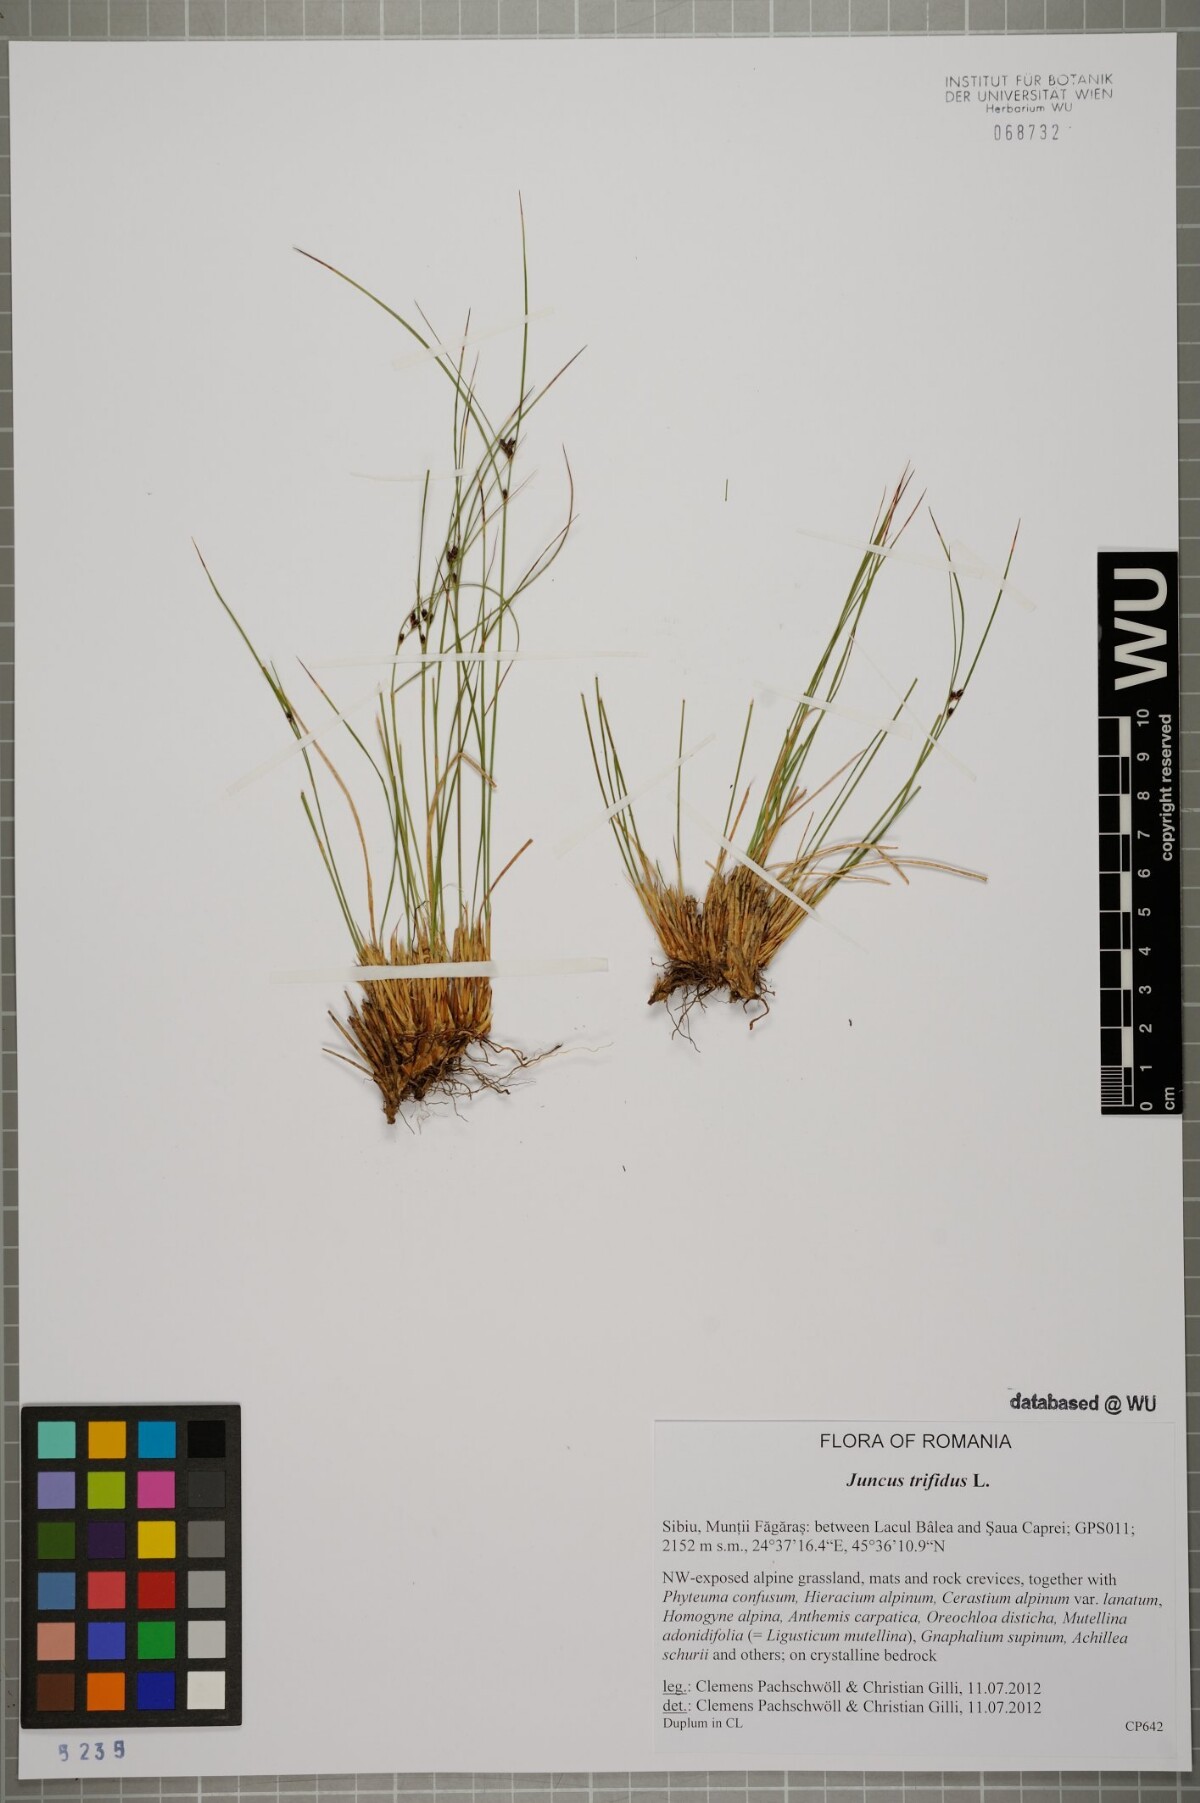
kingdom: Plantae
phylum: Tracheophyta
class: Liliopsida
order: Poales
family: Juncaceae
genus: Oreojuncus
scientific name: Oreojuncus trifidus
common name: Highland rush
